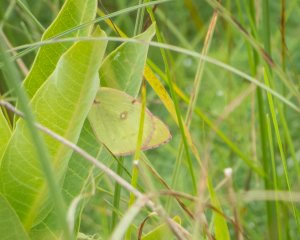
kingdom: Animalia
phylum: Arthropoda
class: Insecta
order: Lepidoptera
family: Pieridae
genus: Colias
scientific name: Colias philodice
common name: Clouded Sulphur
